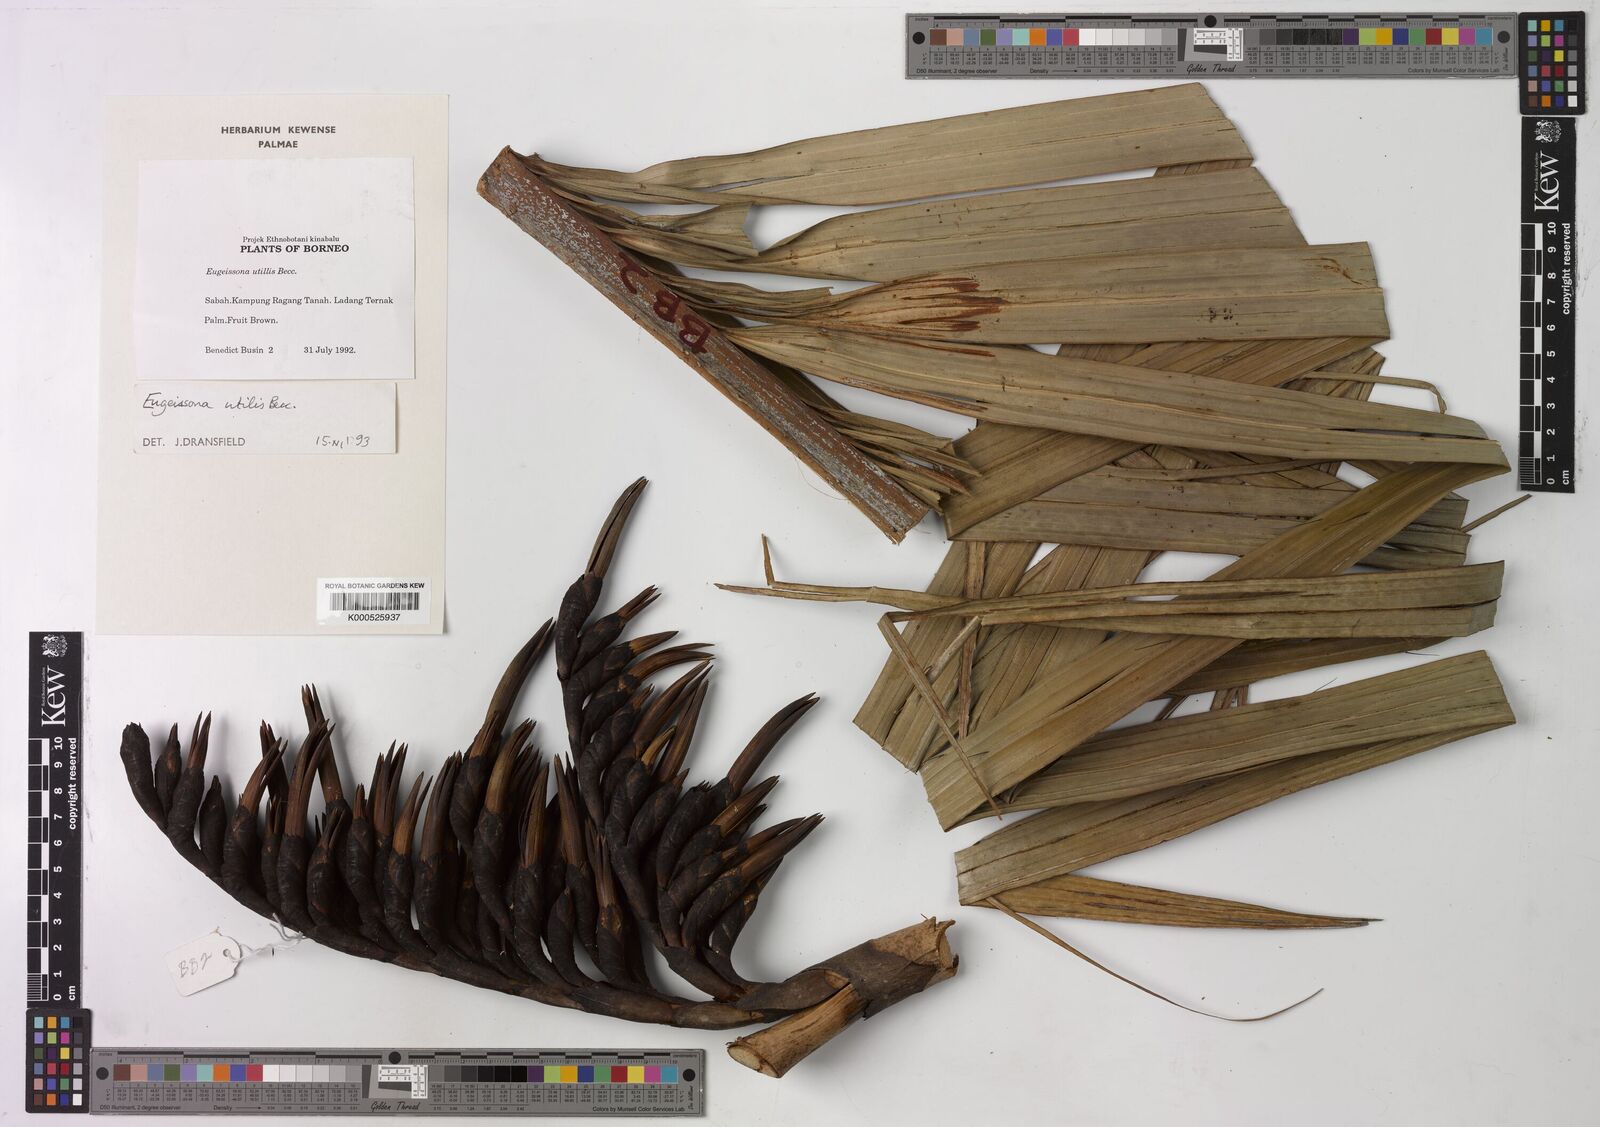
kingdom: Plantae
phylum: Tracheophyta
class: Liliopsida
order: Arecales
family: Arecaceae
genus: Eugeissona
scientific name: Eugeissona utilis
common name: Wild bornean sago palm
